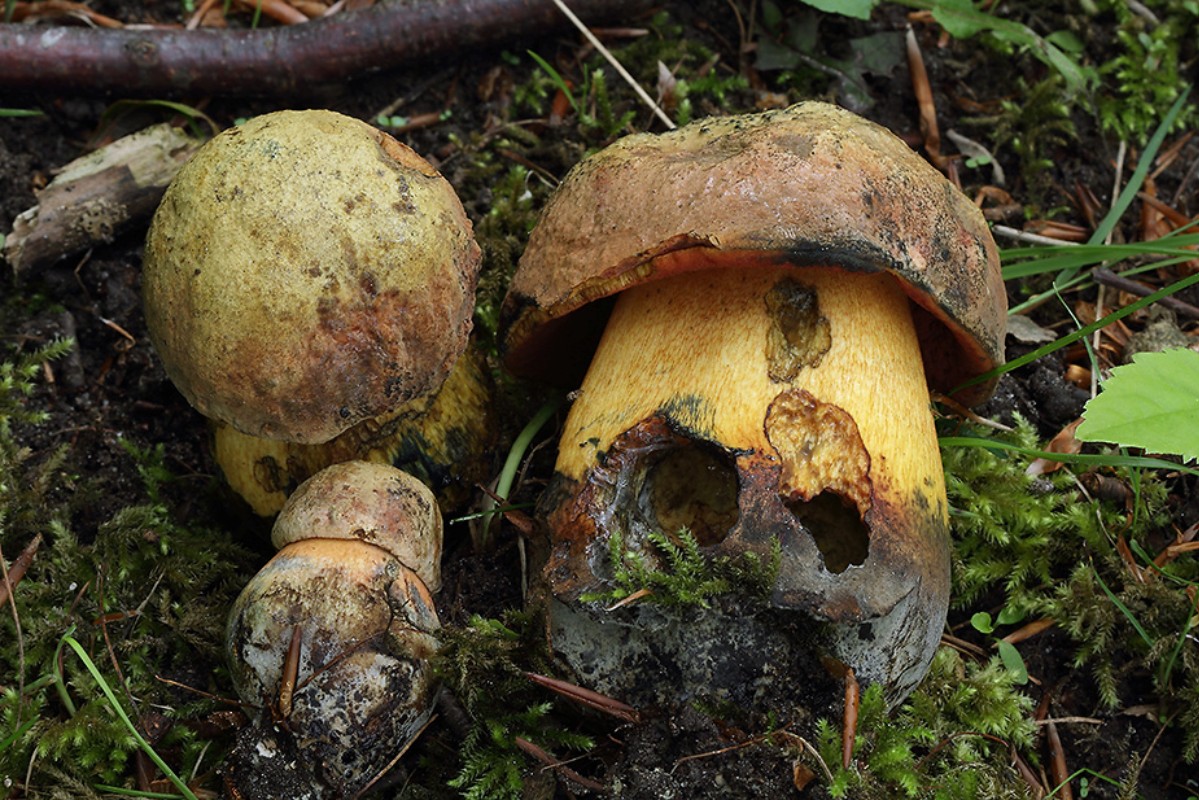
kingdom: Fungi
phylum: Basidiomycota
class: Agaricomycetes
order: Boletales
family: Boletaceae
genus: Suillellus
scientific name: Suillellus luridus
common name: netstokket indigorørhat
